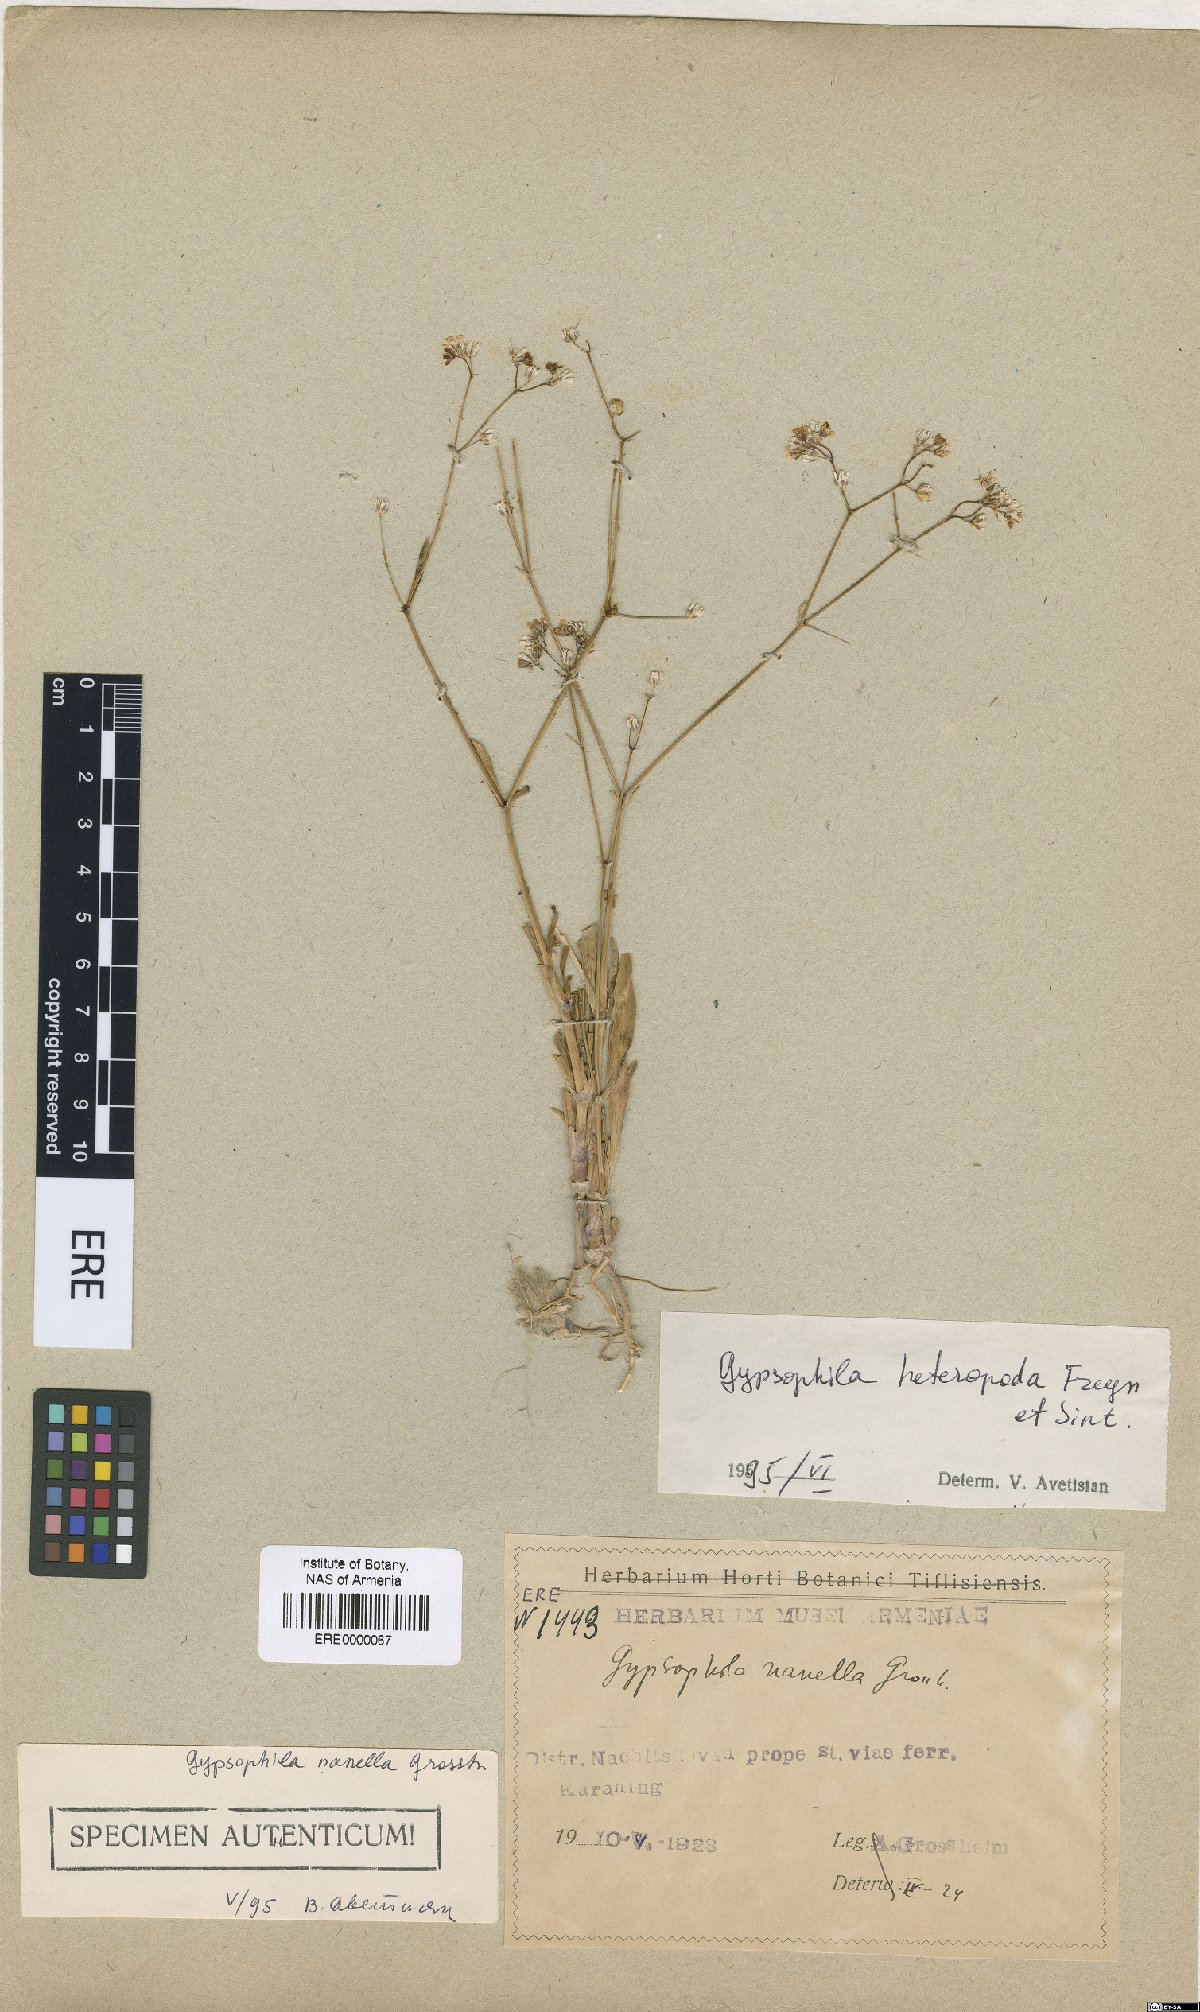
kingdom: Plantae
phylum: Tracheophyta
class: Magnoliopsida
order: Caryophyllales
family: Caryophyllaceae
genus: Gypsophila
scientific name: Gypsophila heteropoda
